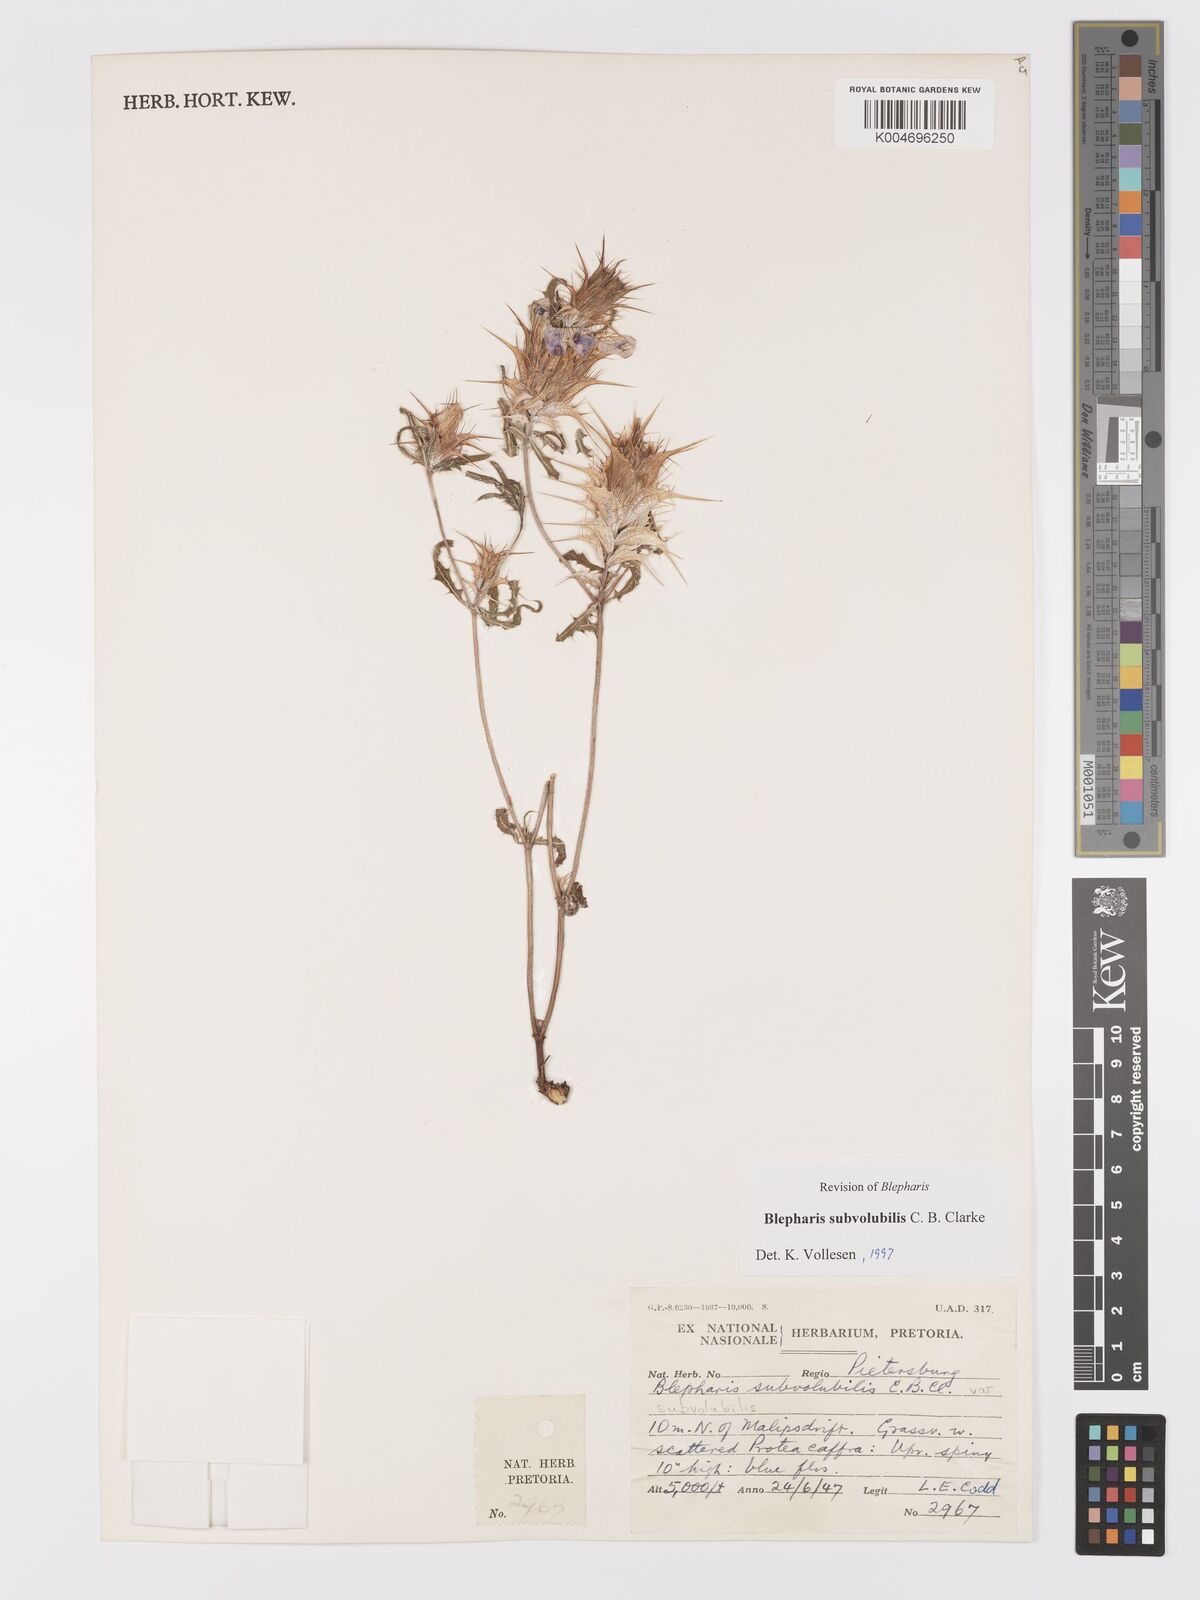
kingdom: Plantae
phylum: Tracheophyta
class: Magnoliopsida
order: Lamiales
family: Acanthaceae
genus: Blepharis
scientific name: Blepharis subvolubilis
